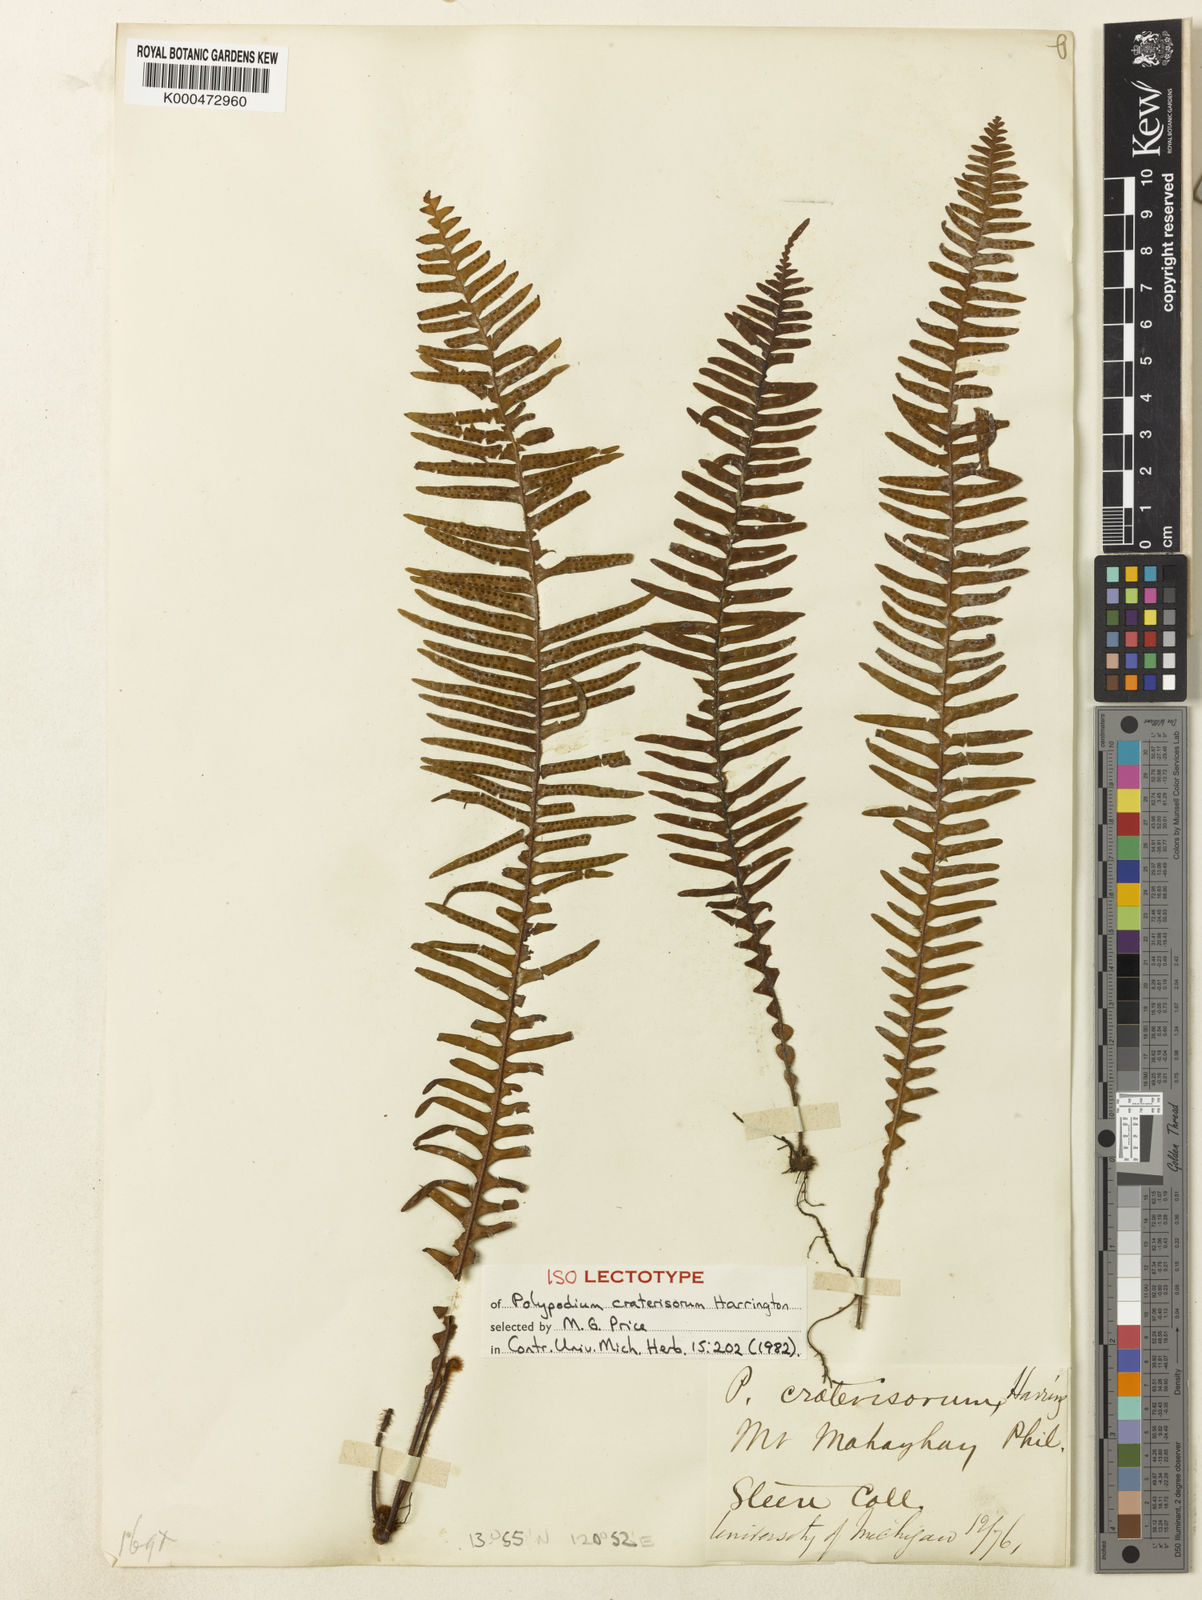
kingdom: Plantae
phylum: Tracheophyta
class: Polypodiopsida
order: Polypodiales
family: Polypodiaceae
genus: Prosaptia
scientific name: Prosaptia celebica
